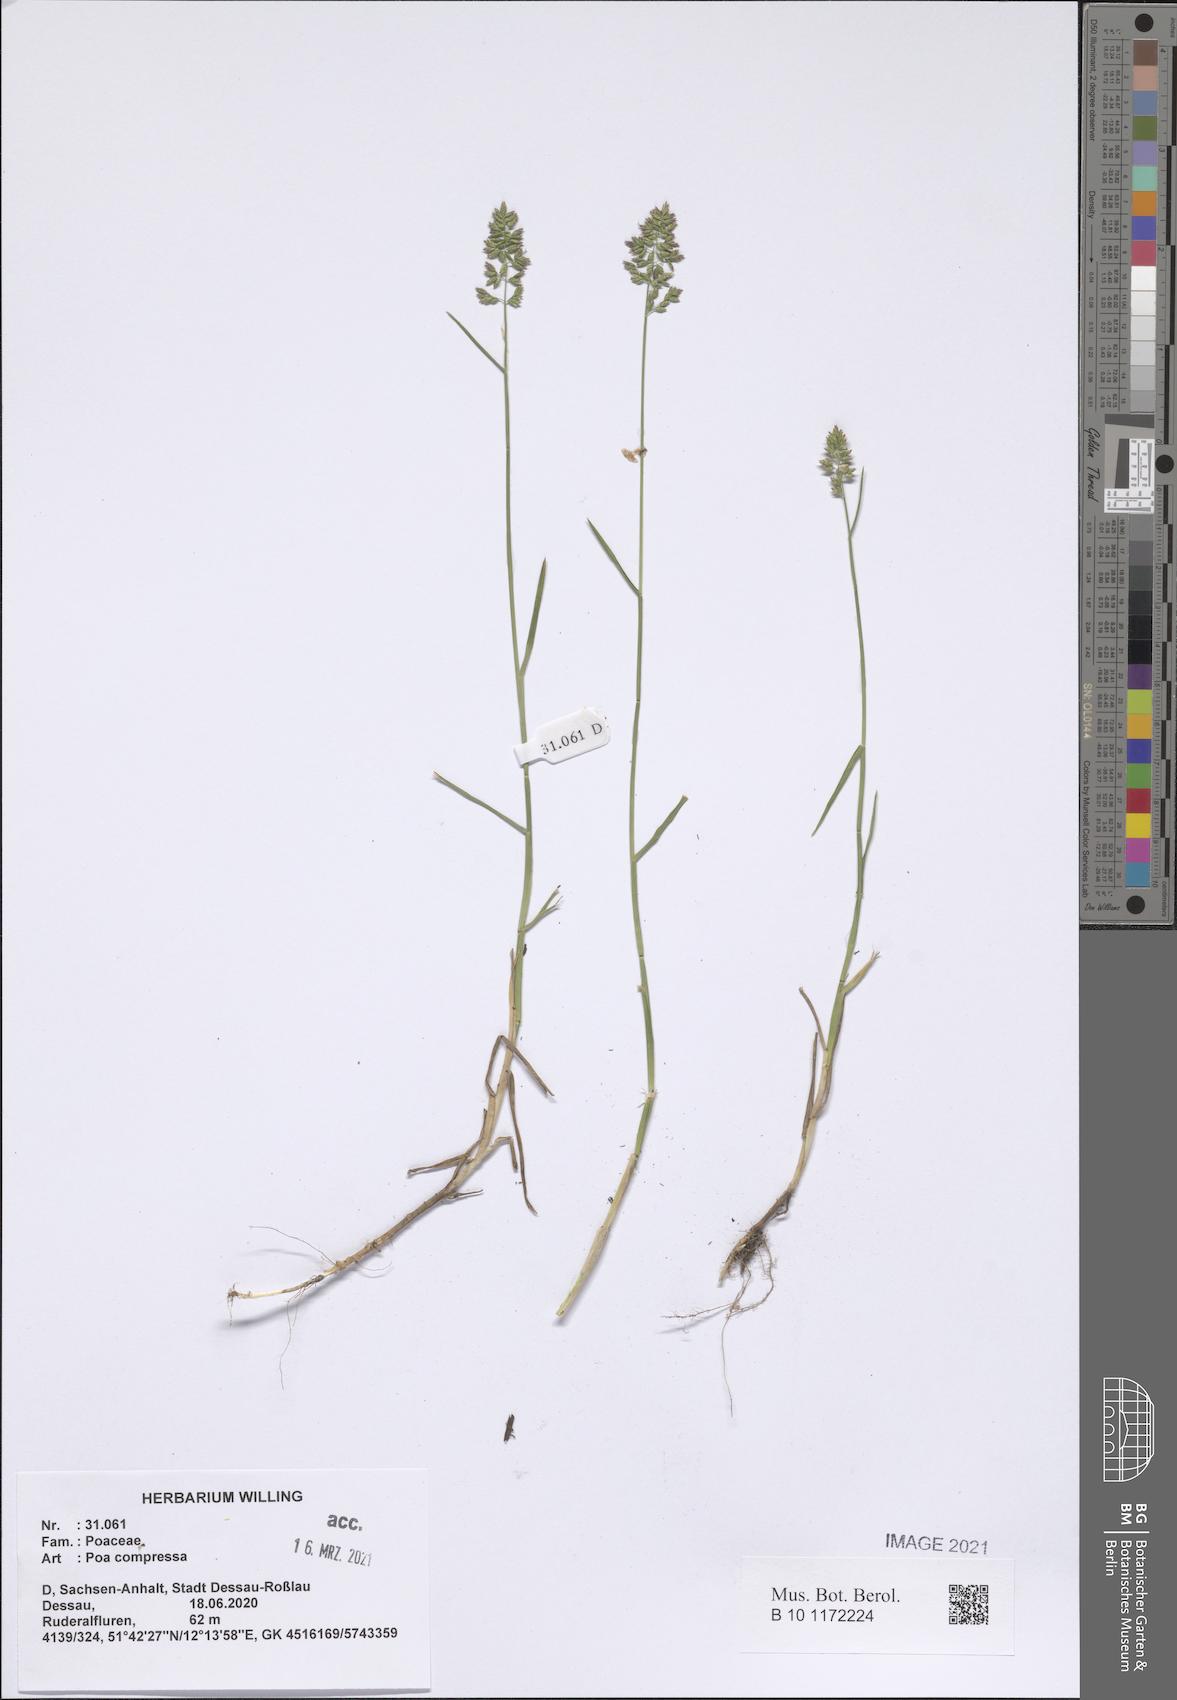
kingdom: Plantae
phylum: Tracheophyta
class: Liliopsida
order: Poales
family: Poaceae
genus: Poa
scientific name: Poa compressa
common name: Canada bluegrass
